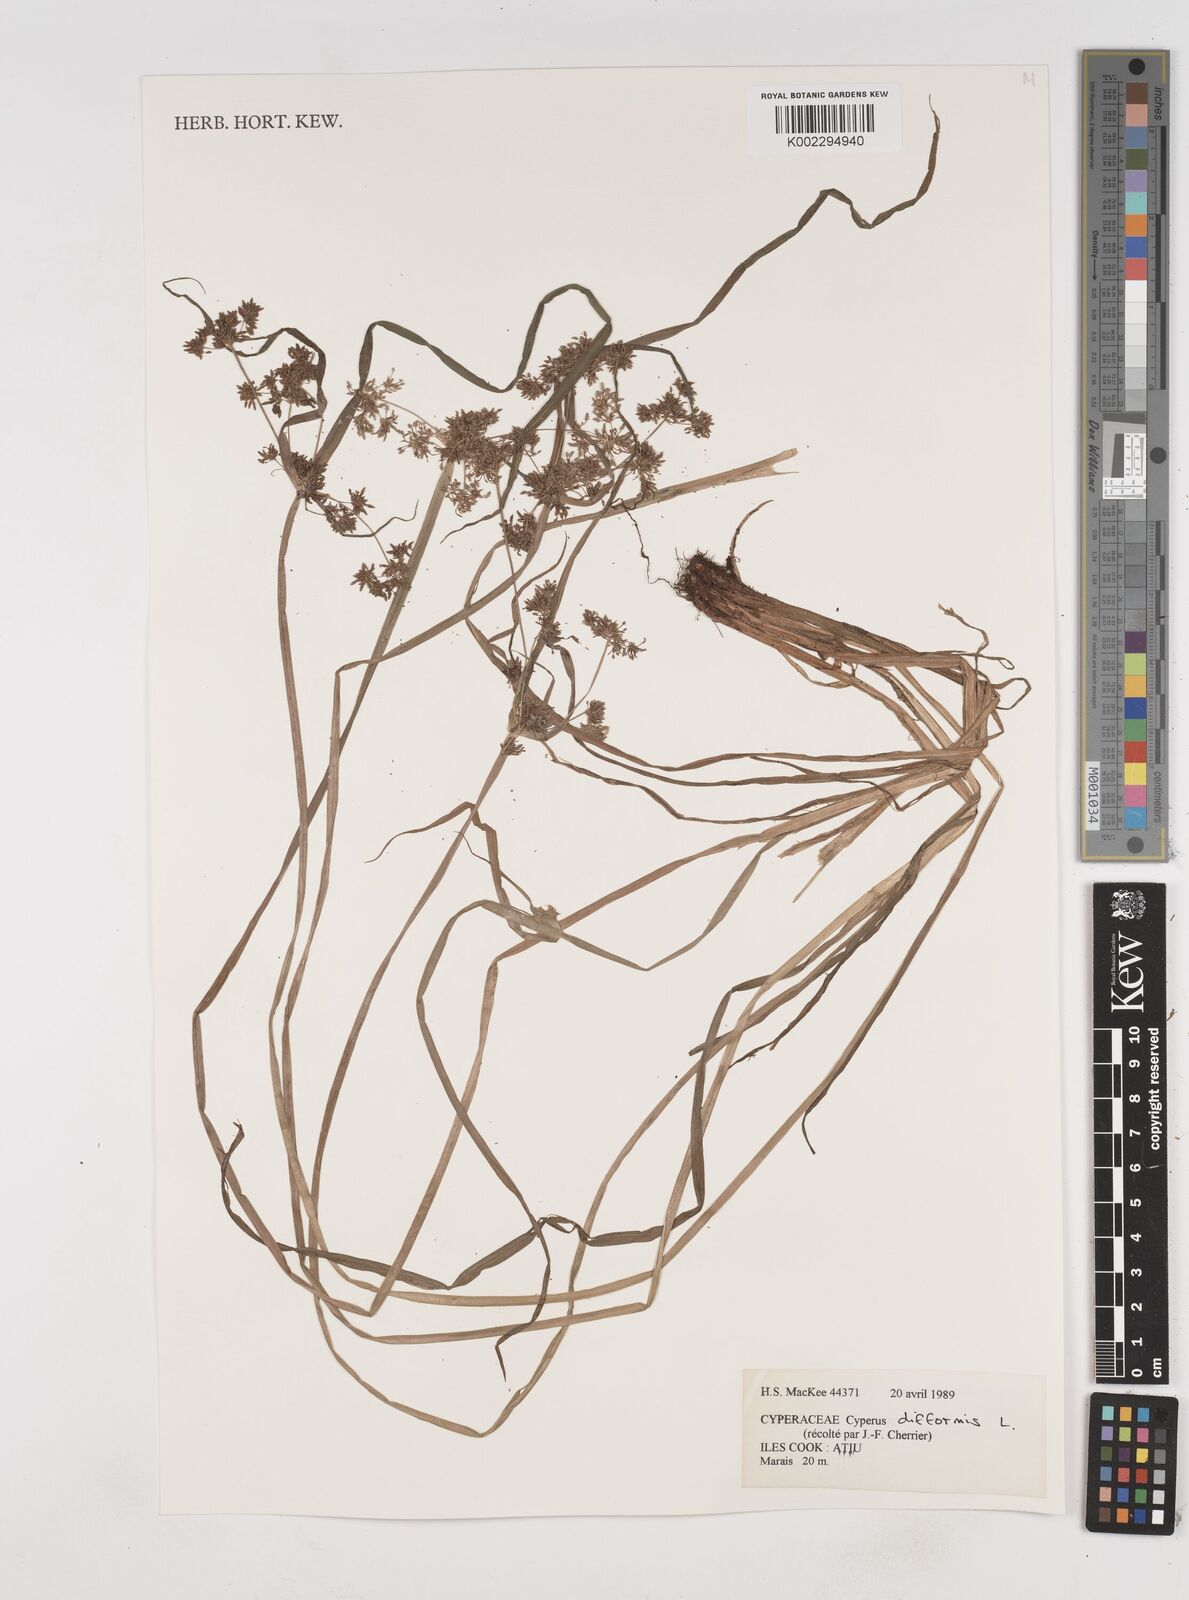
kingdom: Plantae
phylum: Tracheophyta
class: Liliopsida
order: Poales
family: Cyperaceae
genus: Cyperus
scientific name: Cyperus difformis
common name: Variable flatsedge
